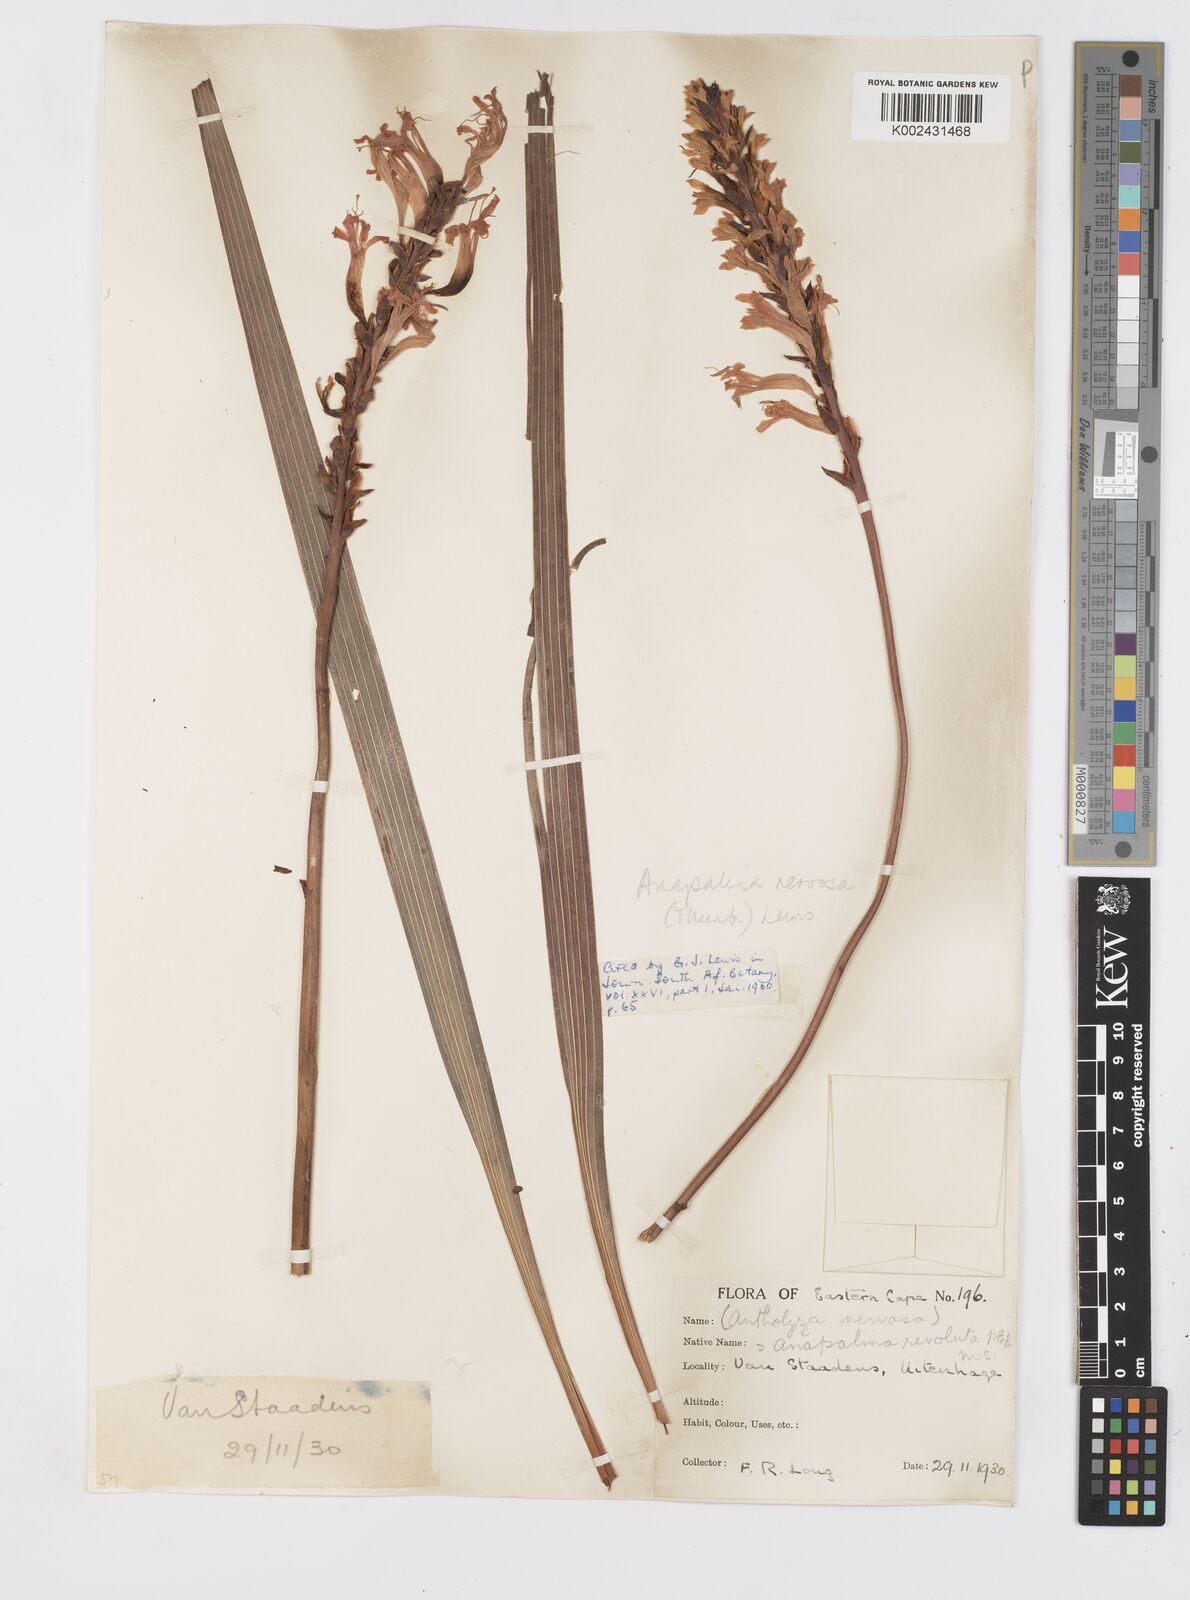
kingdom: Plantae
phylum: Tracheophyta
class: Liliopsida
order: Asparagales
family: Iridaceae
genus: Tritoniopsis
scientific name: Tritoniopsis nervosa
